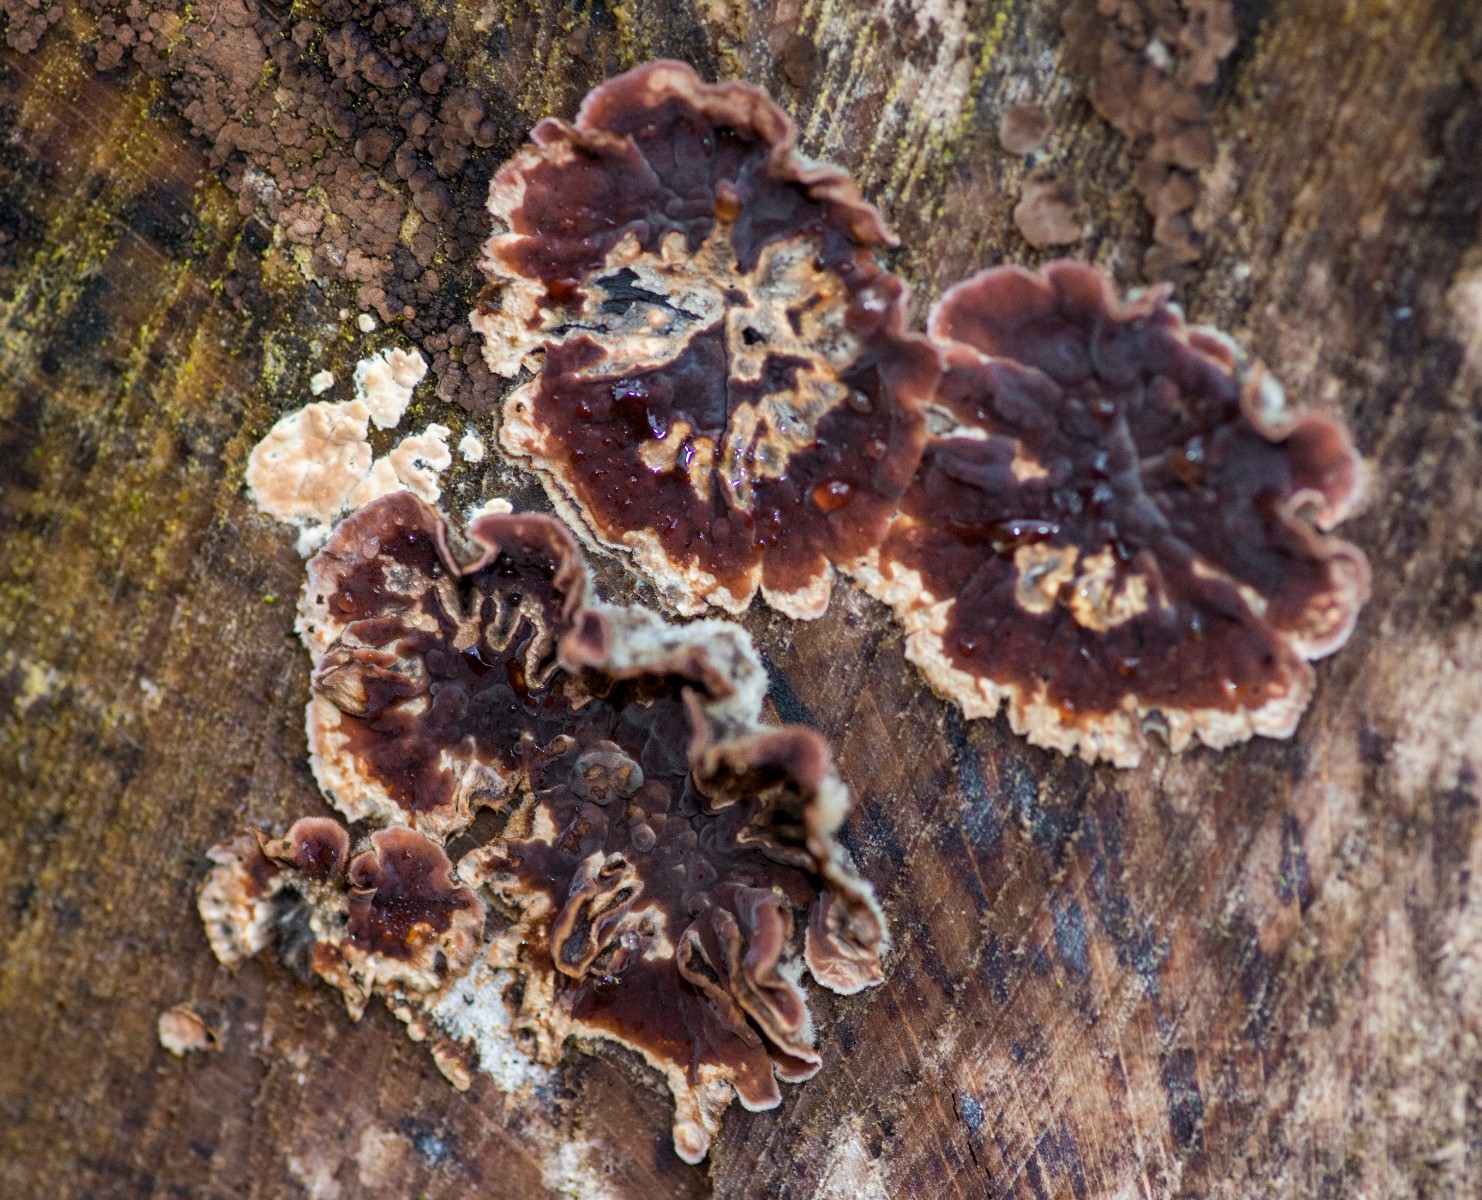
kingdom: Fungi
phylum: Basidiomycota
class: Agaricomycetes
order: Agaricales
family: Cyphellaceae
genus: Chondrostereum
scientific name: Chondrostereum purpureum
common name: purpurlædersvamp
